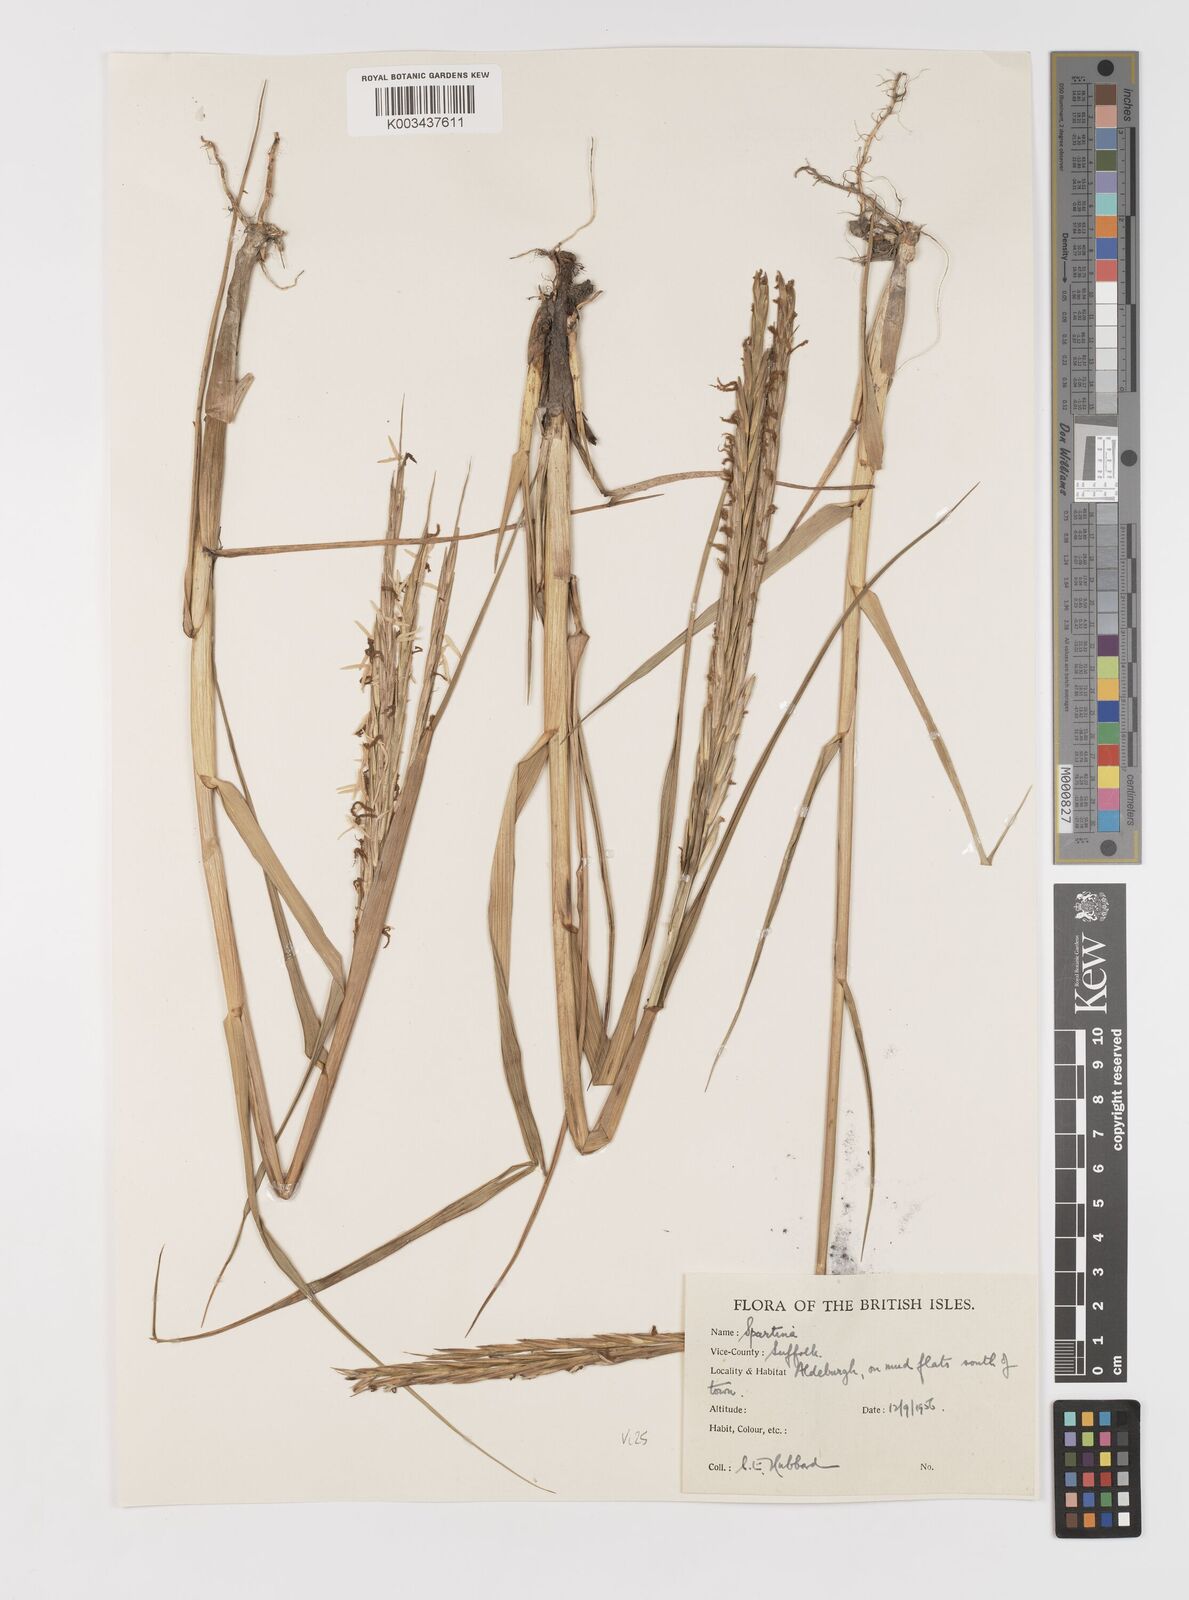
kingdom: Plantae
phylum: Tracheophyta
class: Liliopsida
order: Poales
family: Poaceae
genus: Sporobolus
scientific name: Sporobolus anglicus
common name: English cordgrass
